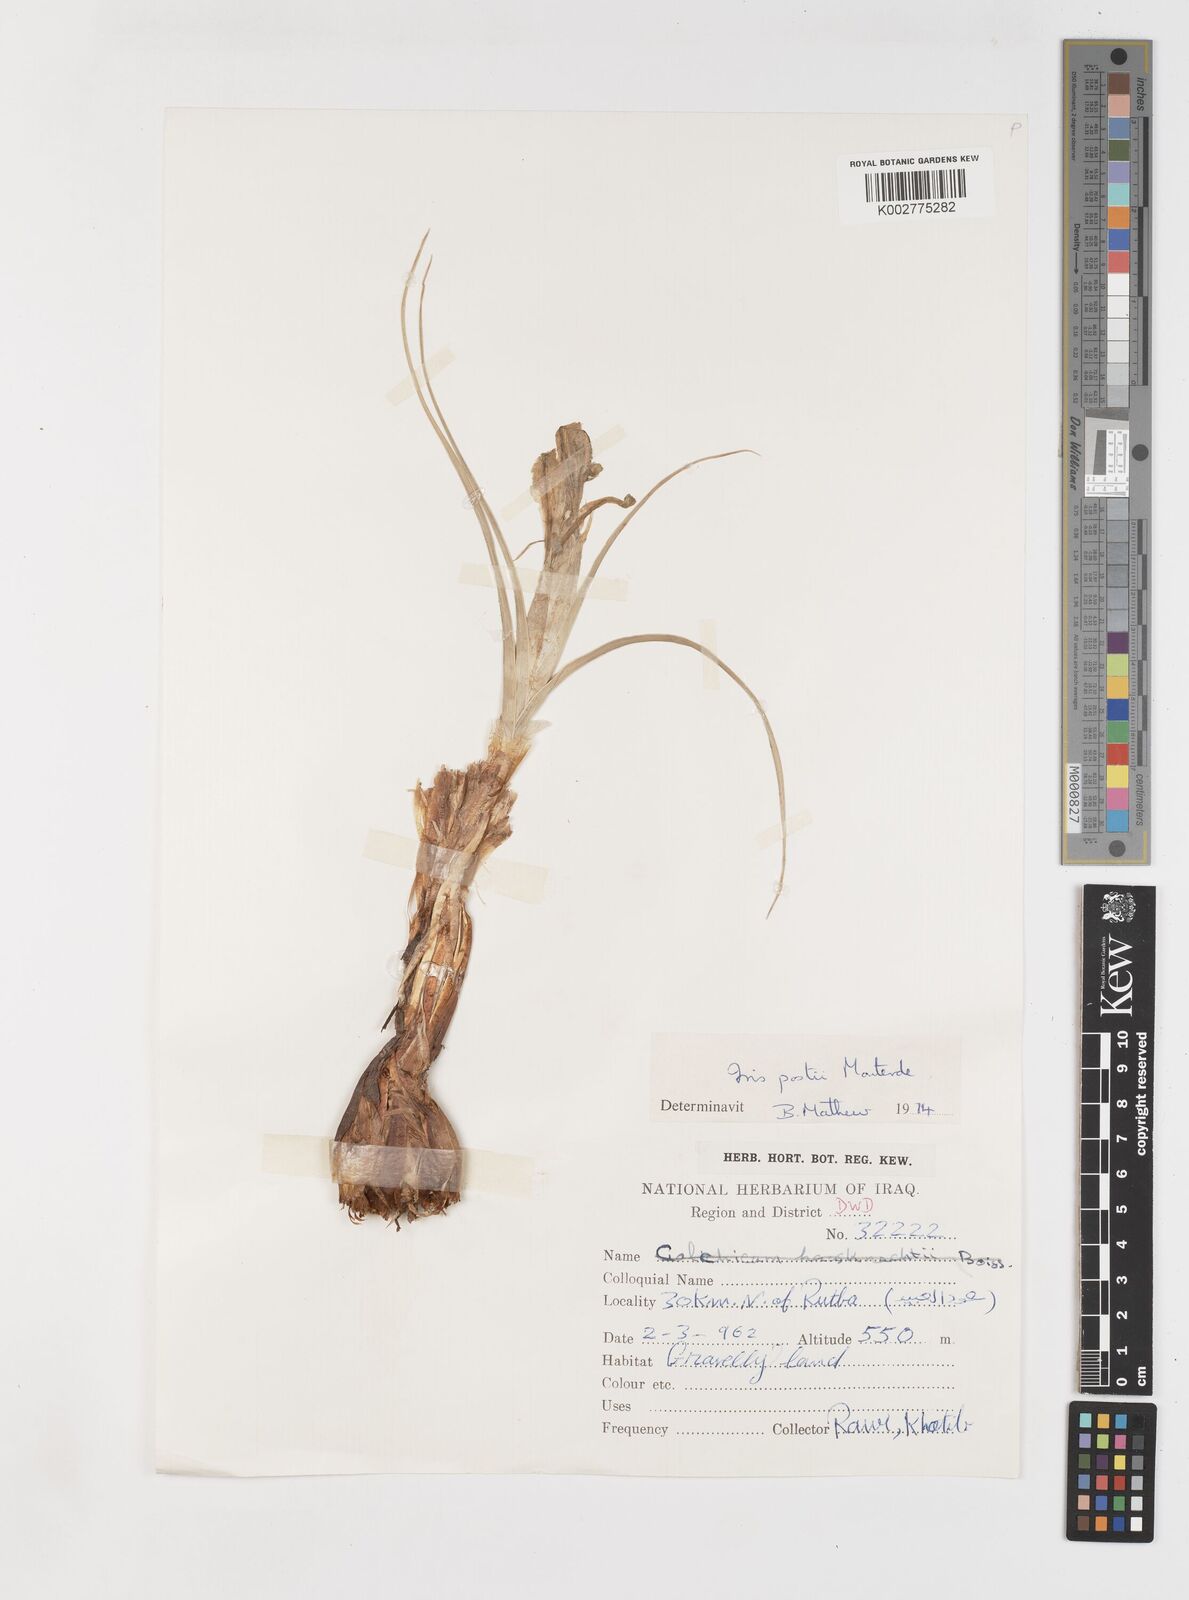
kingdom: Plantae
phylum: Tracheophyta
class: Liliopsida
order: Asparagales
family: Iridaceae
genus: Iris
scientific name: Iris postii
